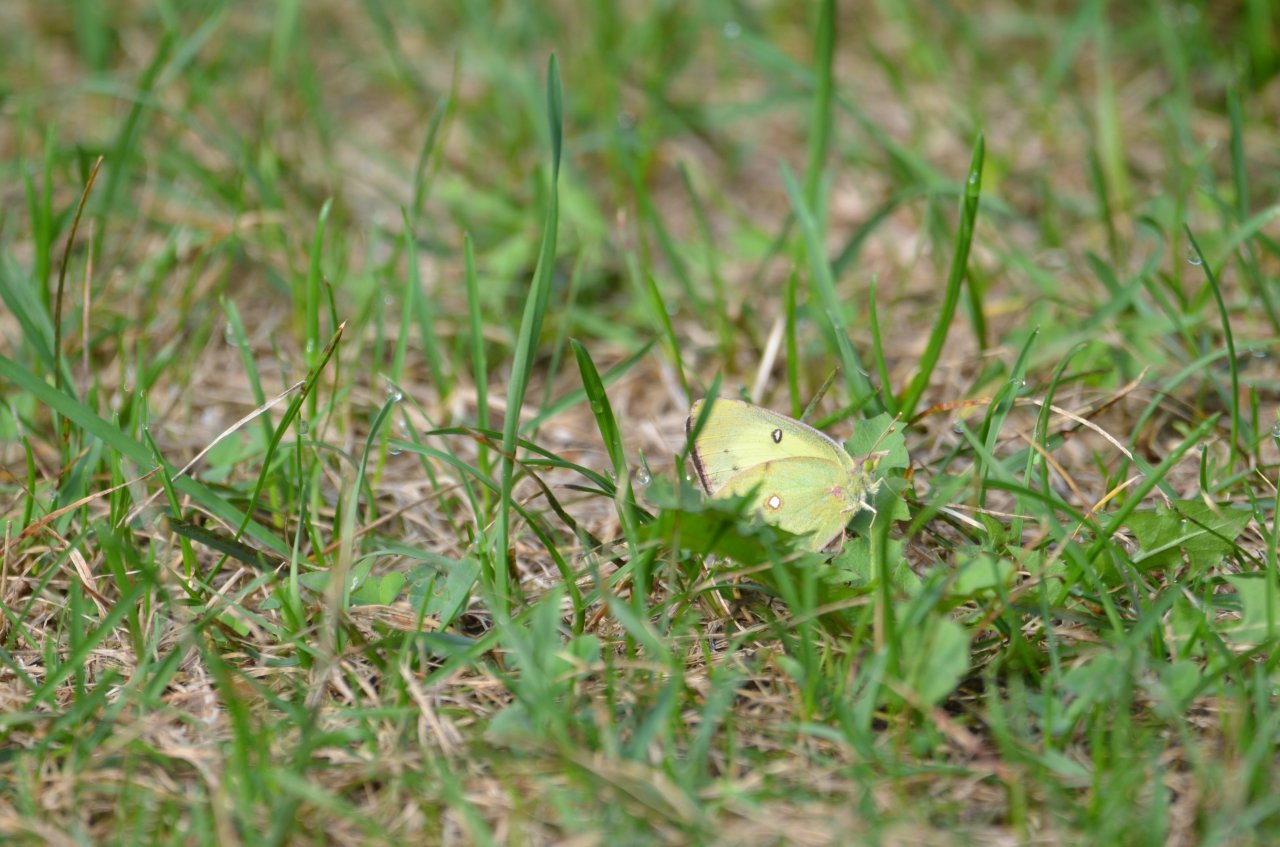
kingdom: Animalia
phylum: Arthropoda
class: Insecta
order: Lepidoptera
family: Pieridae
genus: Colias
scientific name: Colias philodice
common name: Clouded Sulphur
